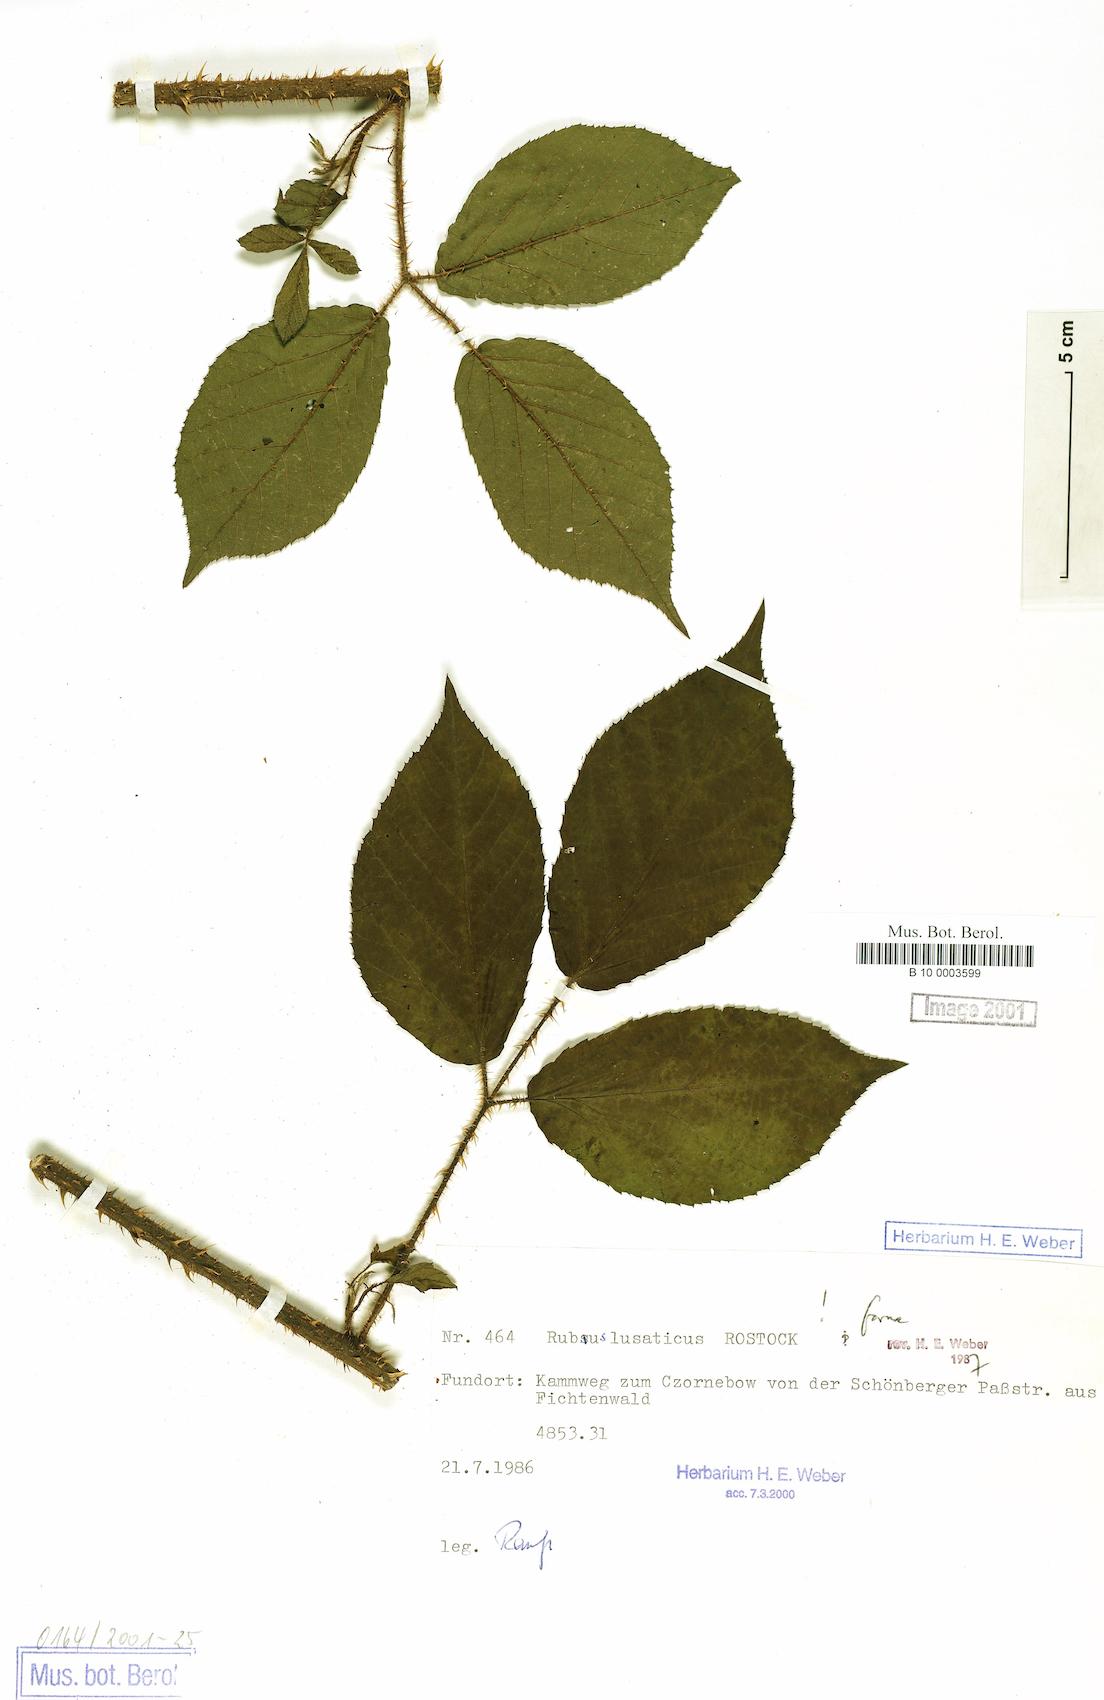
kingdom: Plantae
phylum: Tracheophyta
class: Magnoliopsida
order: Rosales
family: Rosaceae
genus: Rubus
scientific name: Rubus lusaticus
